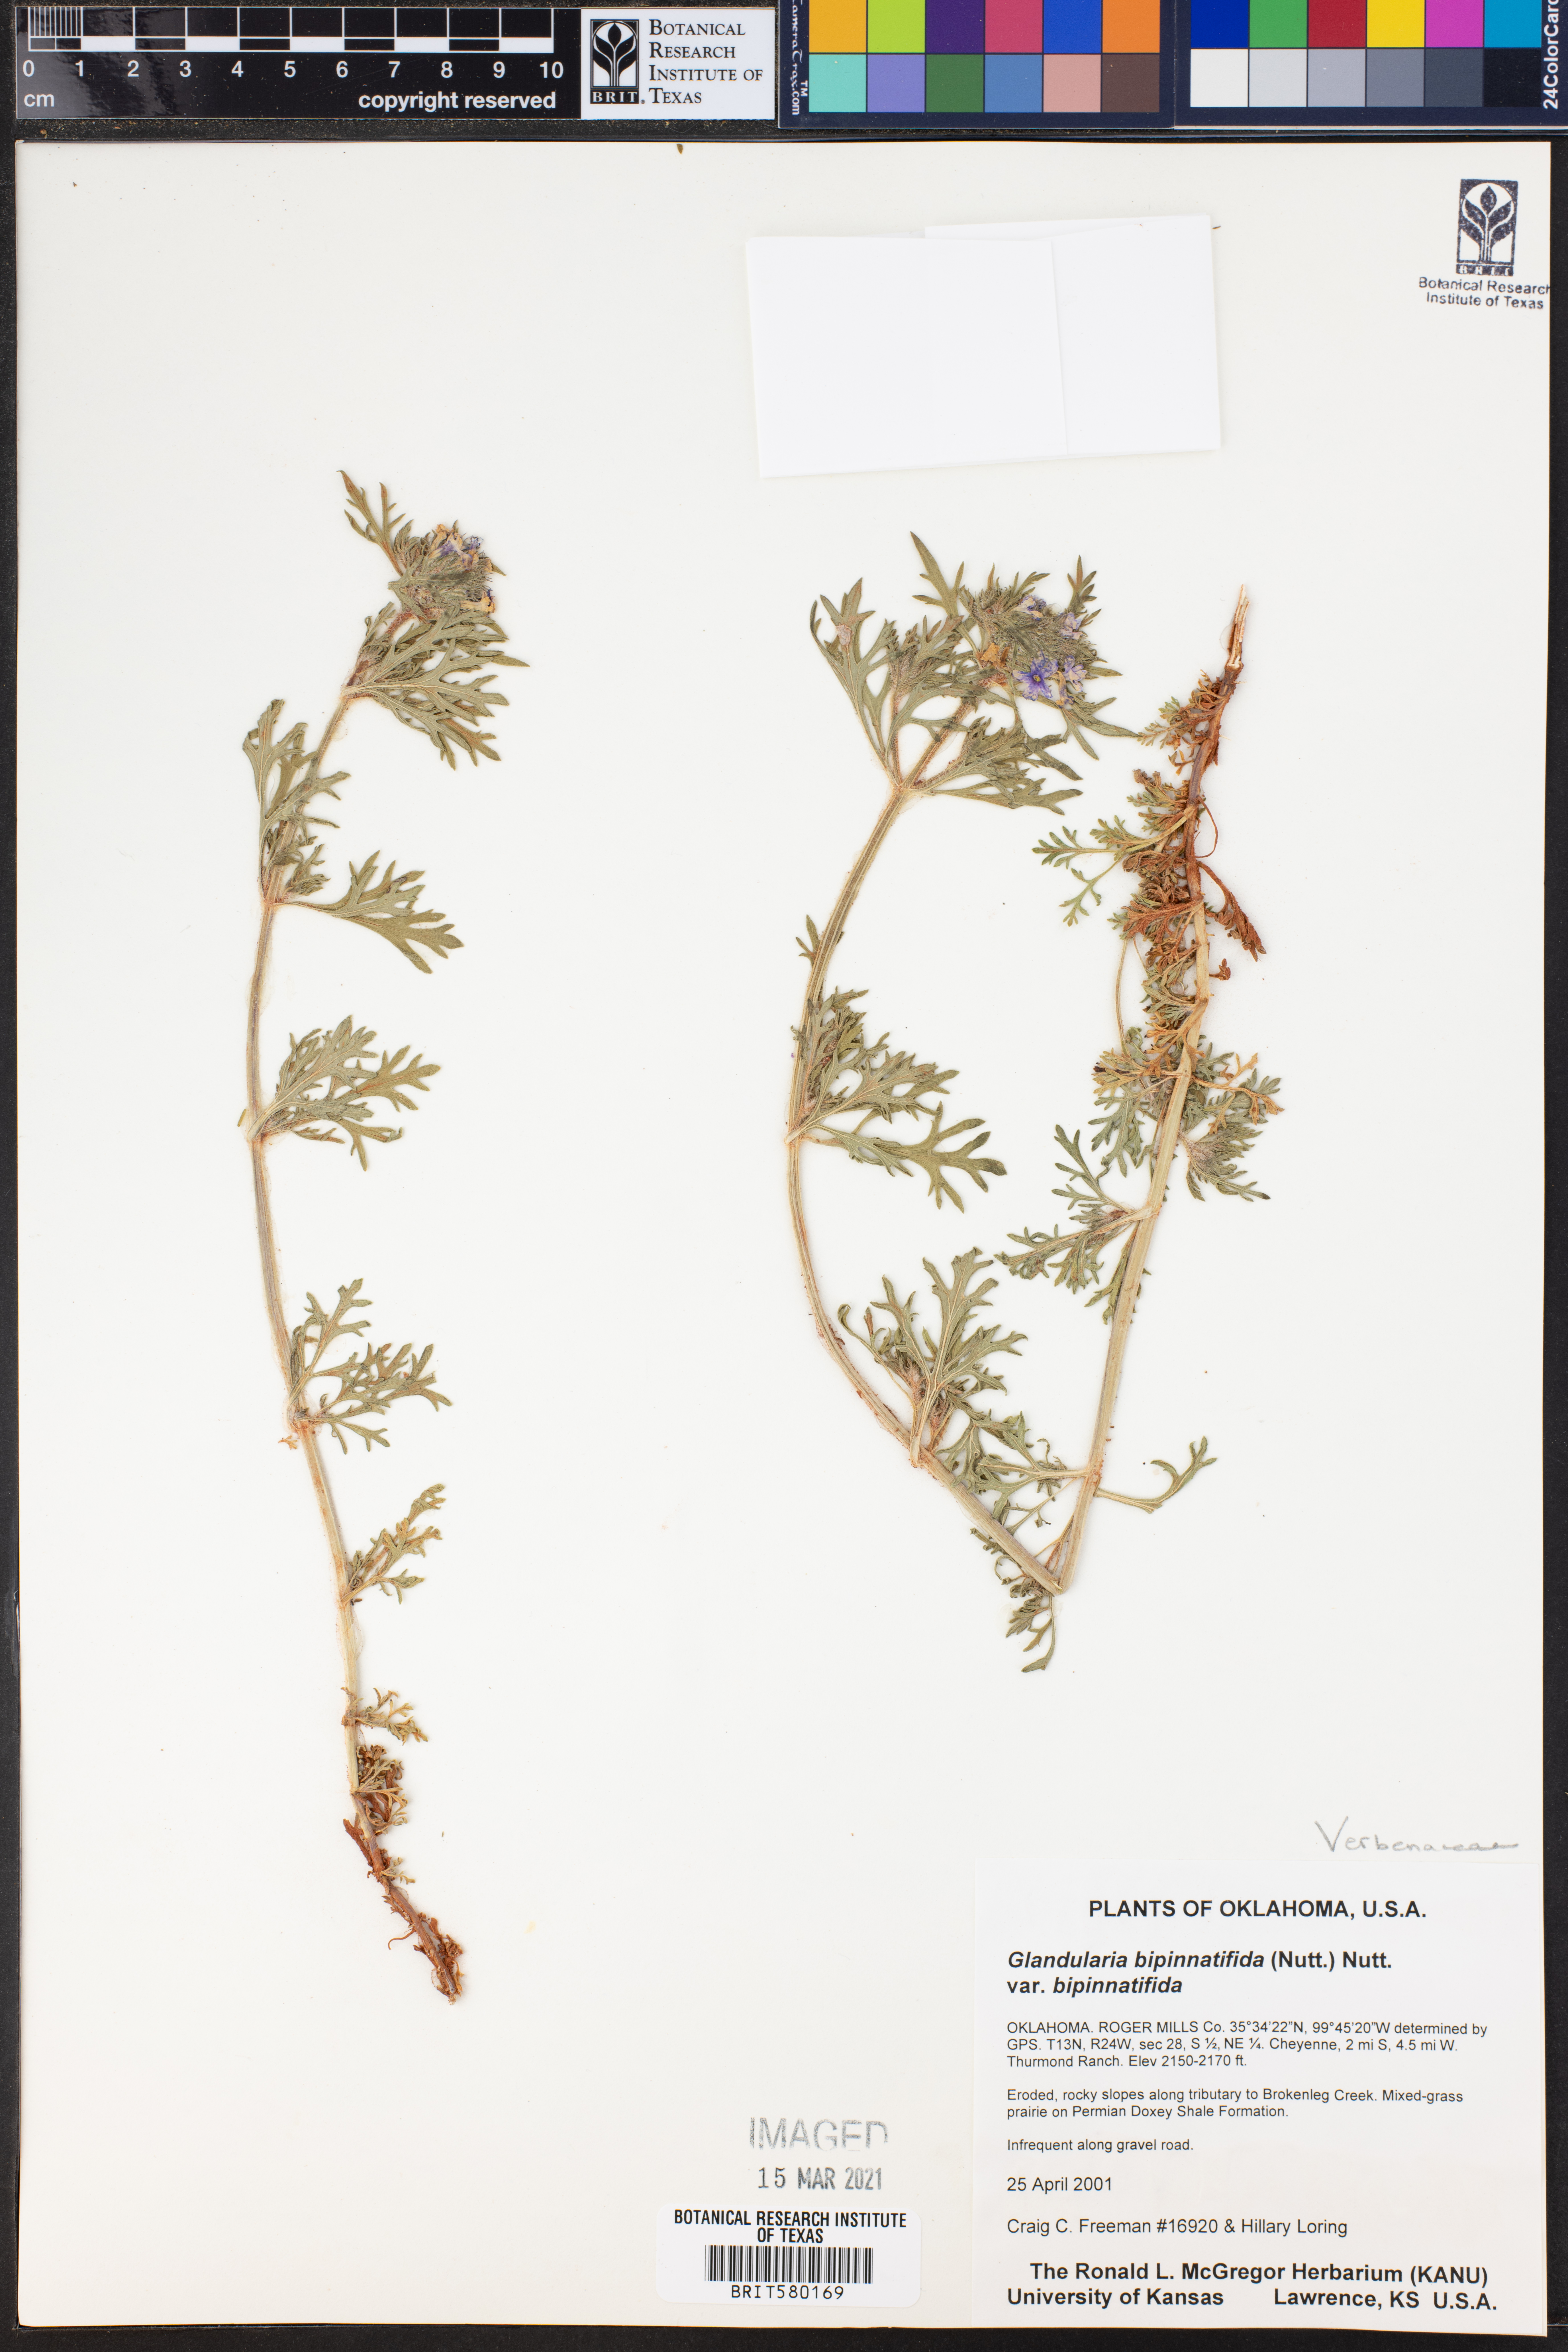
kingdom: Plantae
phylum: Tracheophyta
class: Magnoliopsida
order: Lamiales
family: Verbenaceae
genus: Verbena
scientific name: Verbena bipinnatifida
